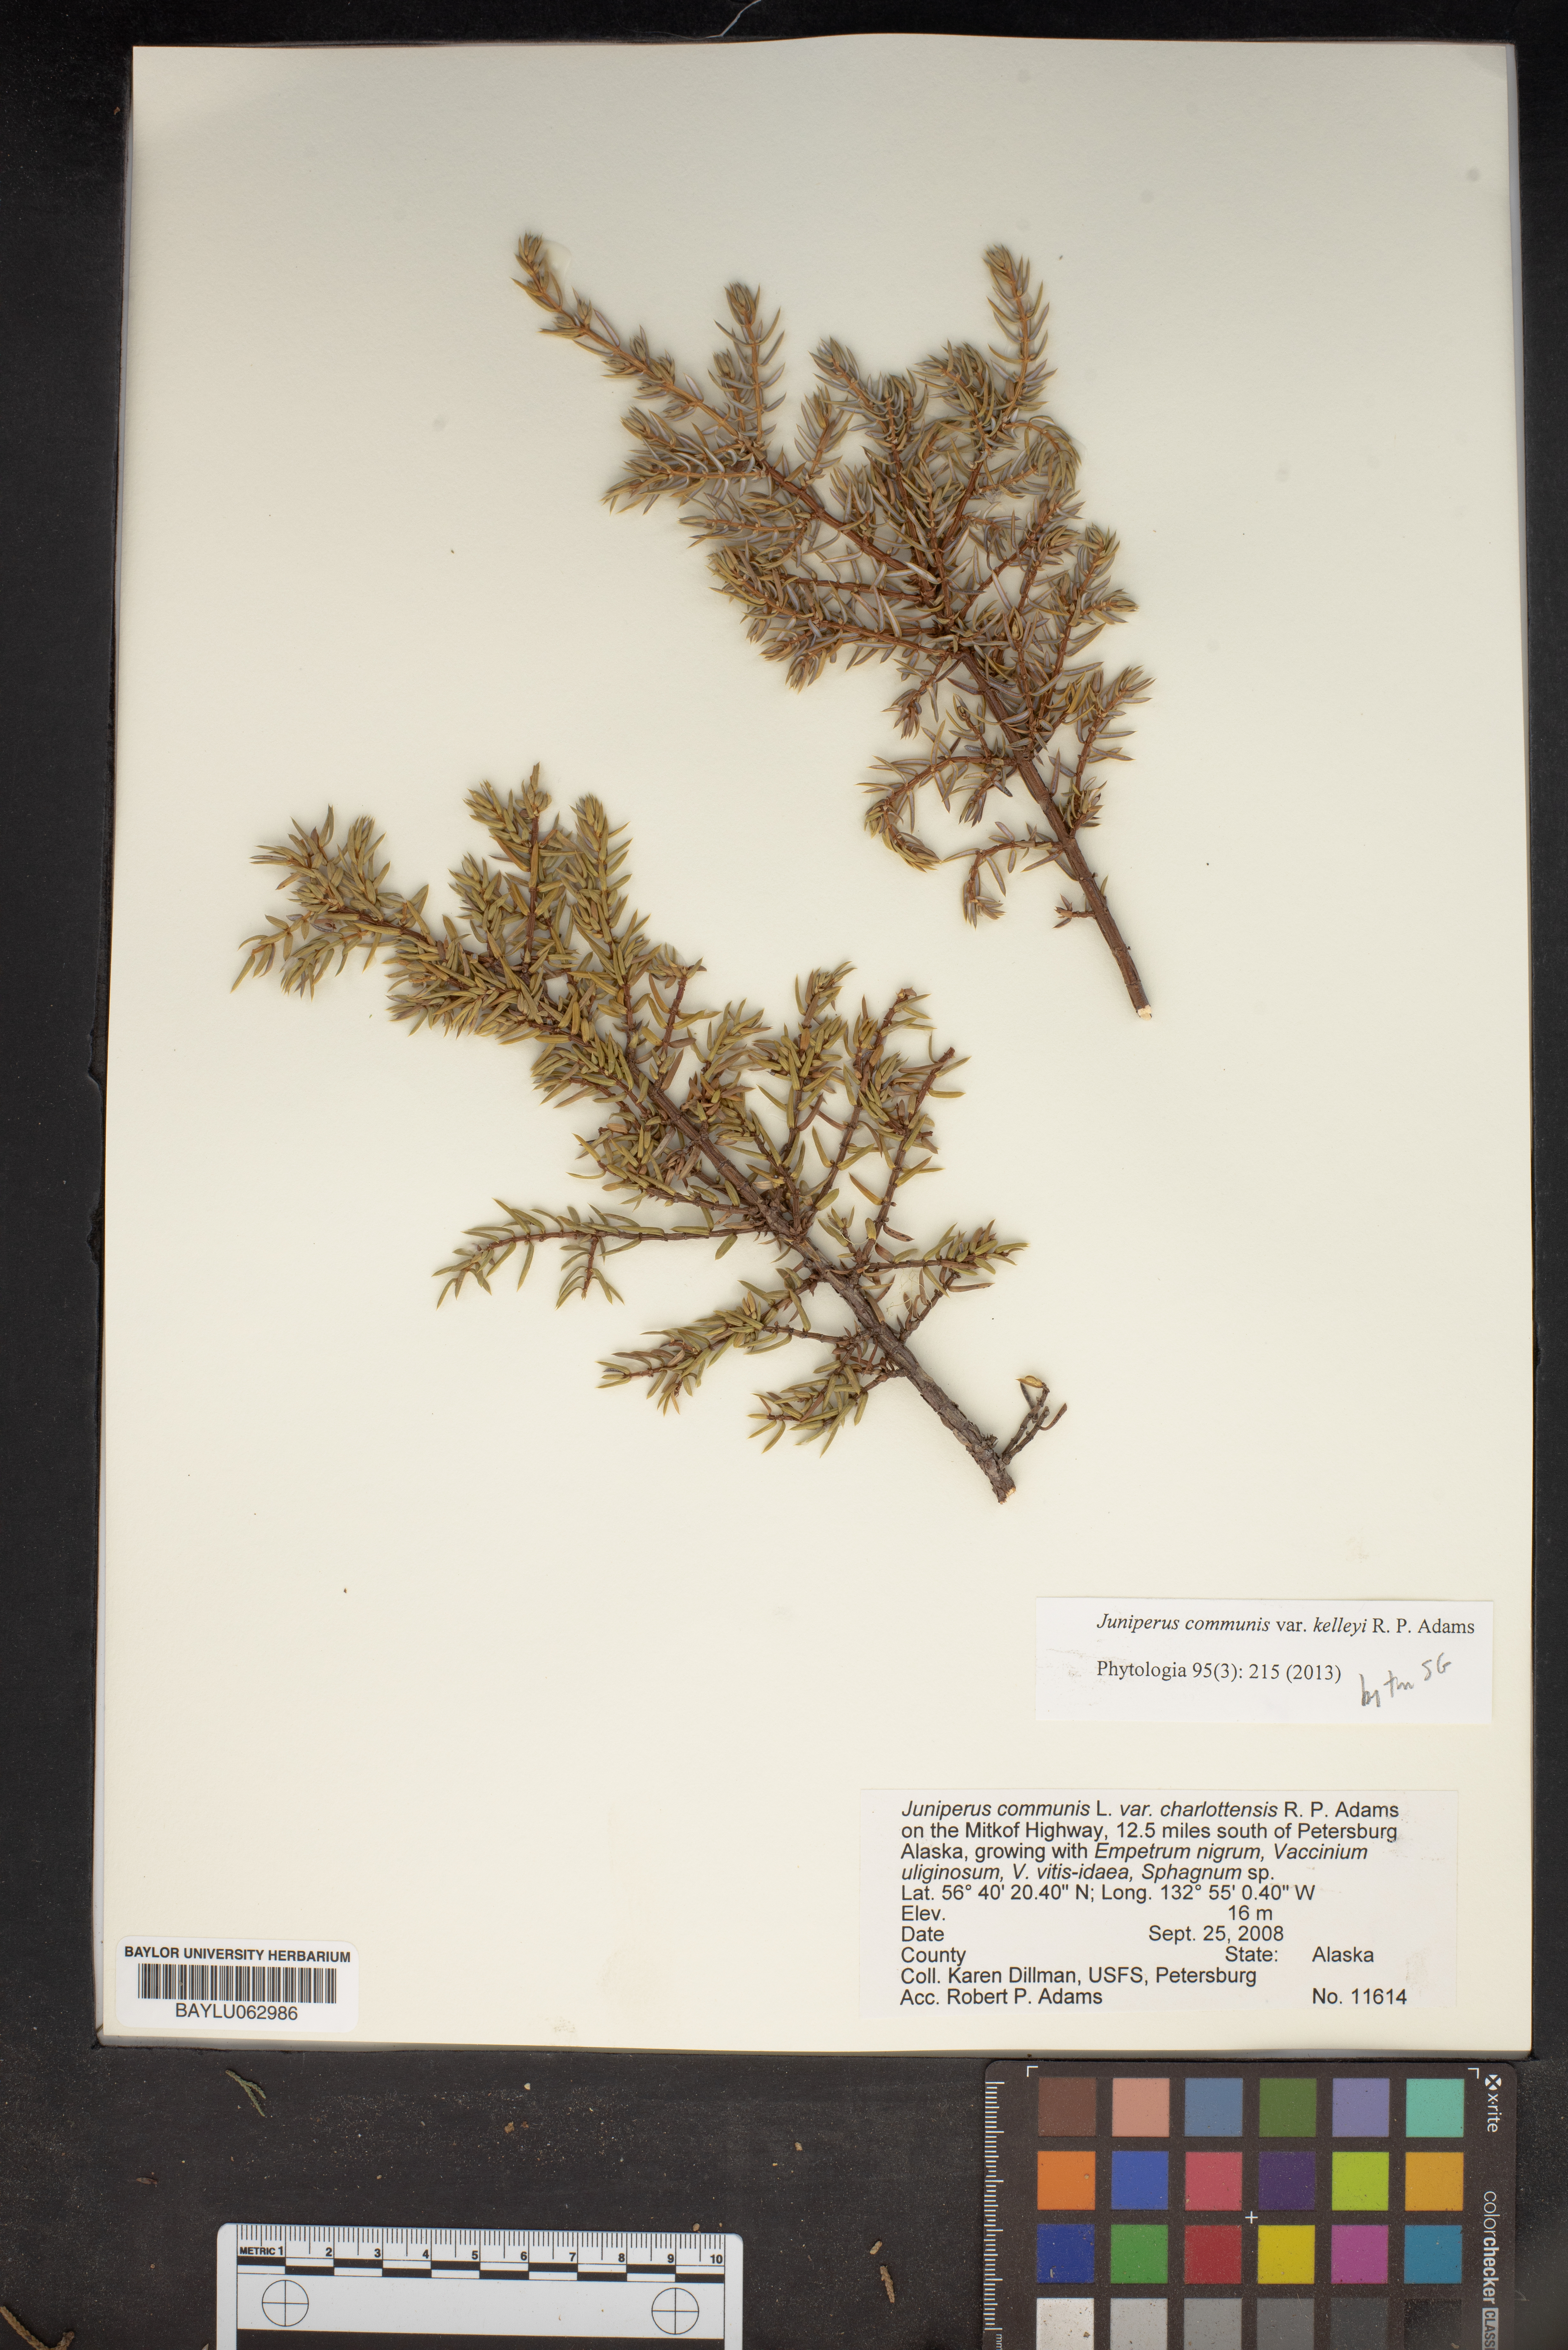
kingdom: Plantae
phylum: Tracheophyta
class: Pinopsida
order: Pinales
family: Cupressaceae
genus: Juniperus
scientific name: Juniperus communis
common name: Common juniper
